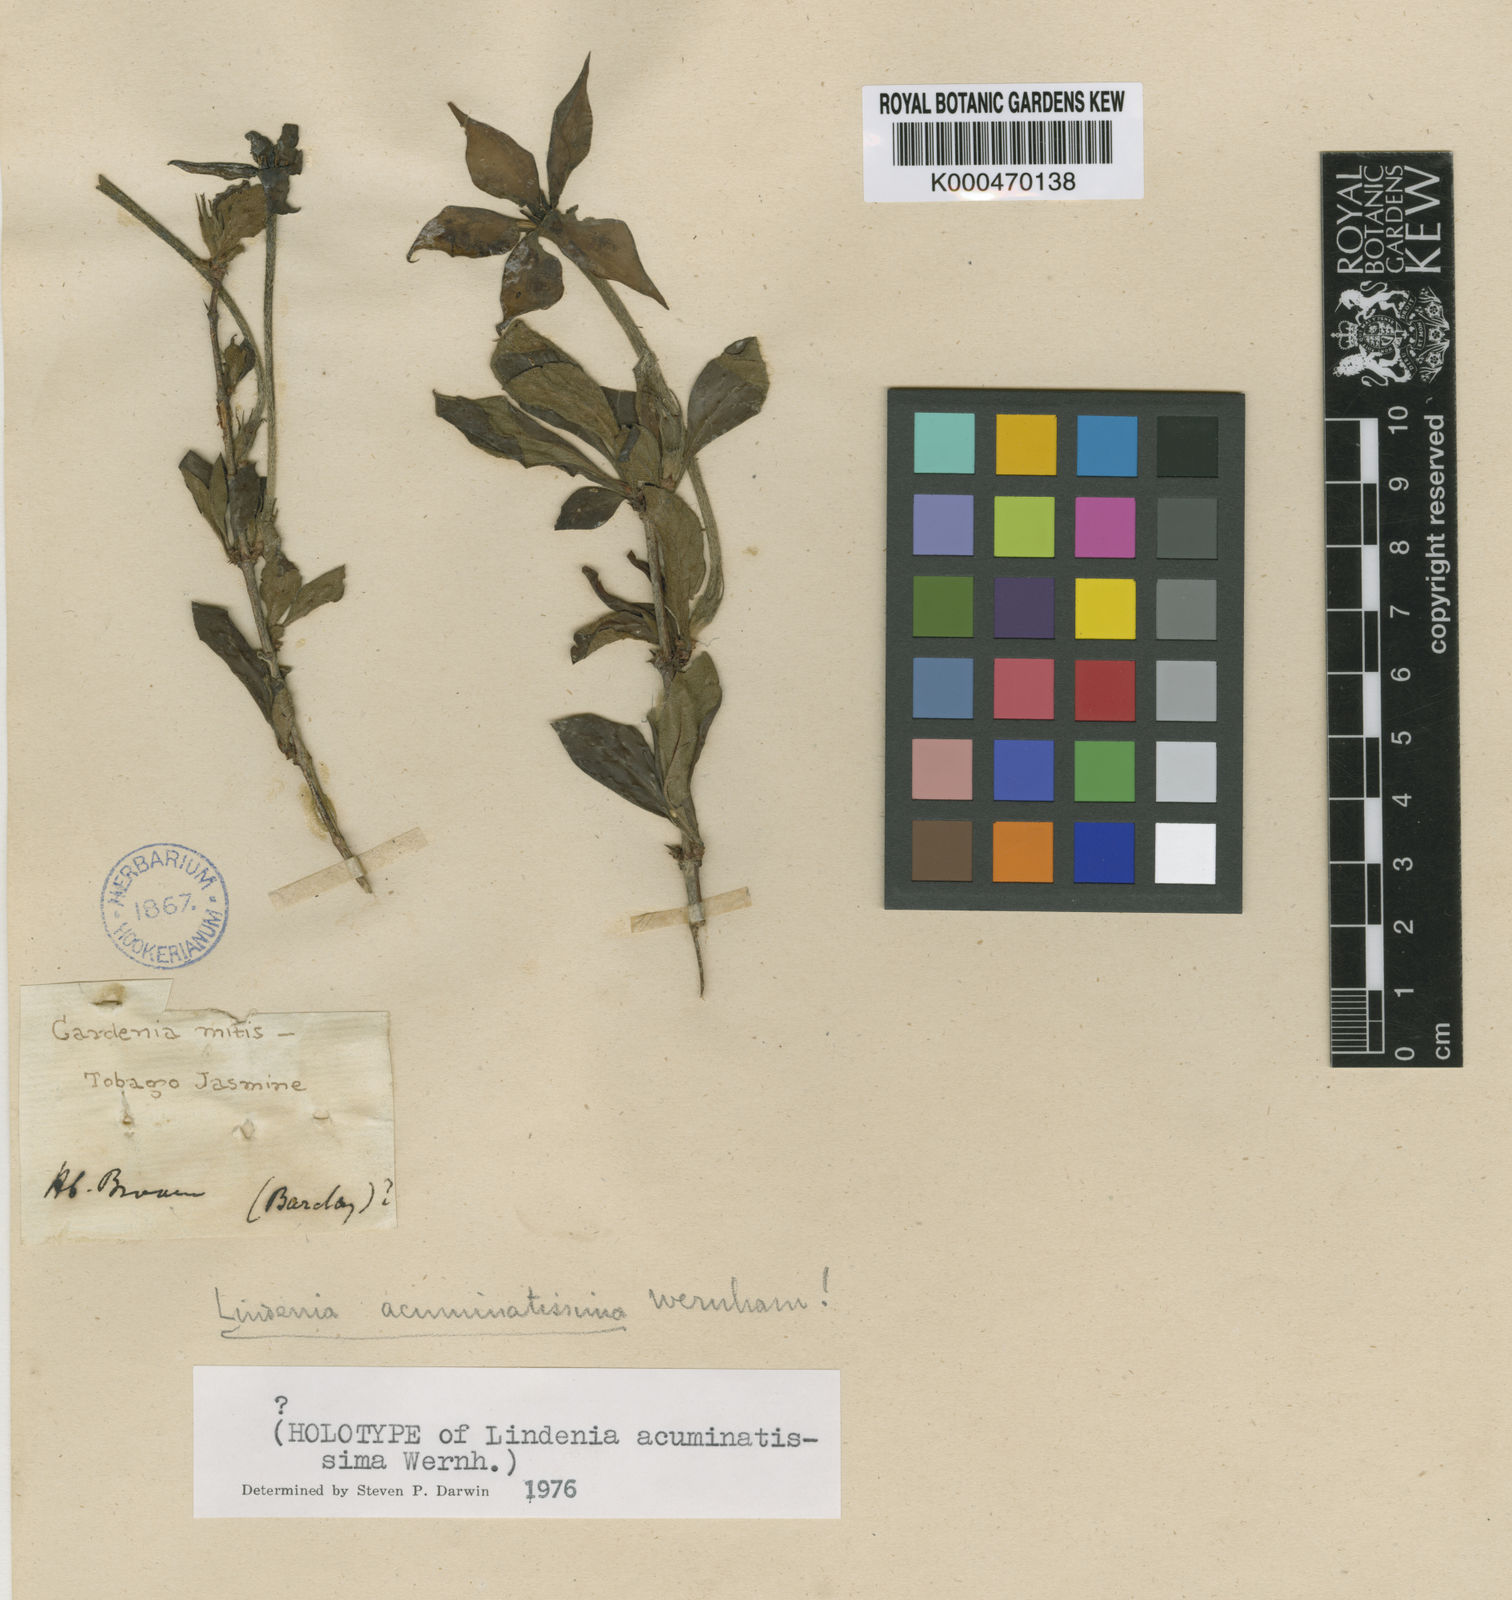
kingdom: Plantae
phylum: Tracheophyta
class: Magnoliopsida
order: Gentianales
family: Rubiaceae
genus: Augusta
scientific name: Augusta
